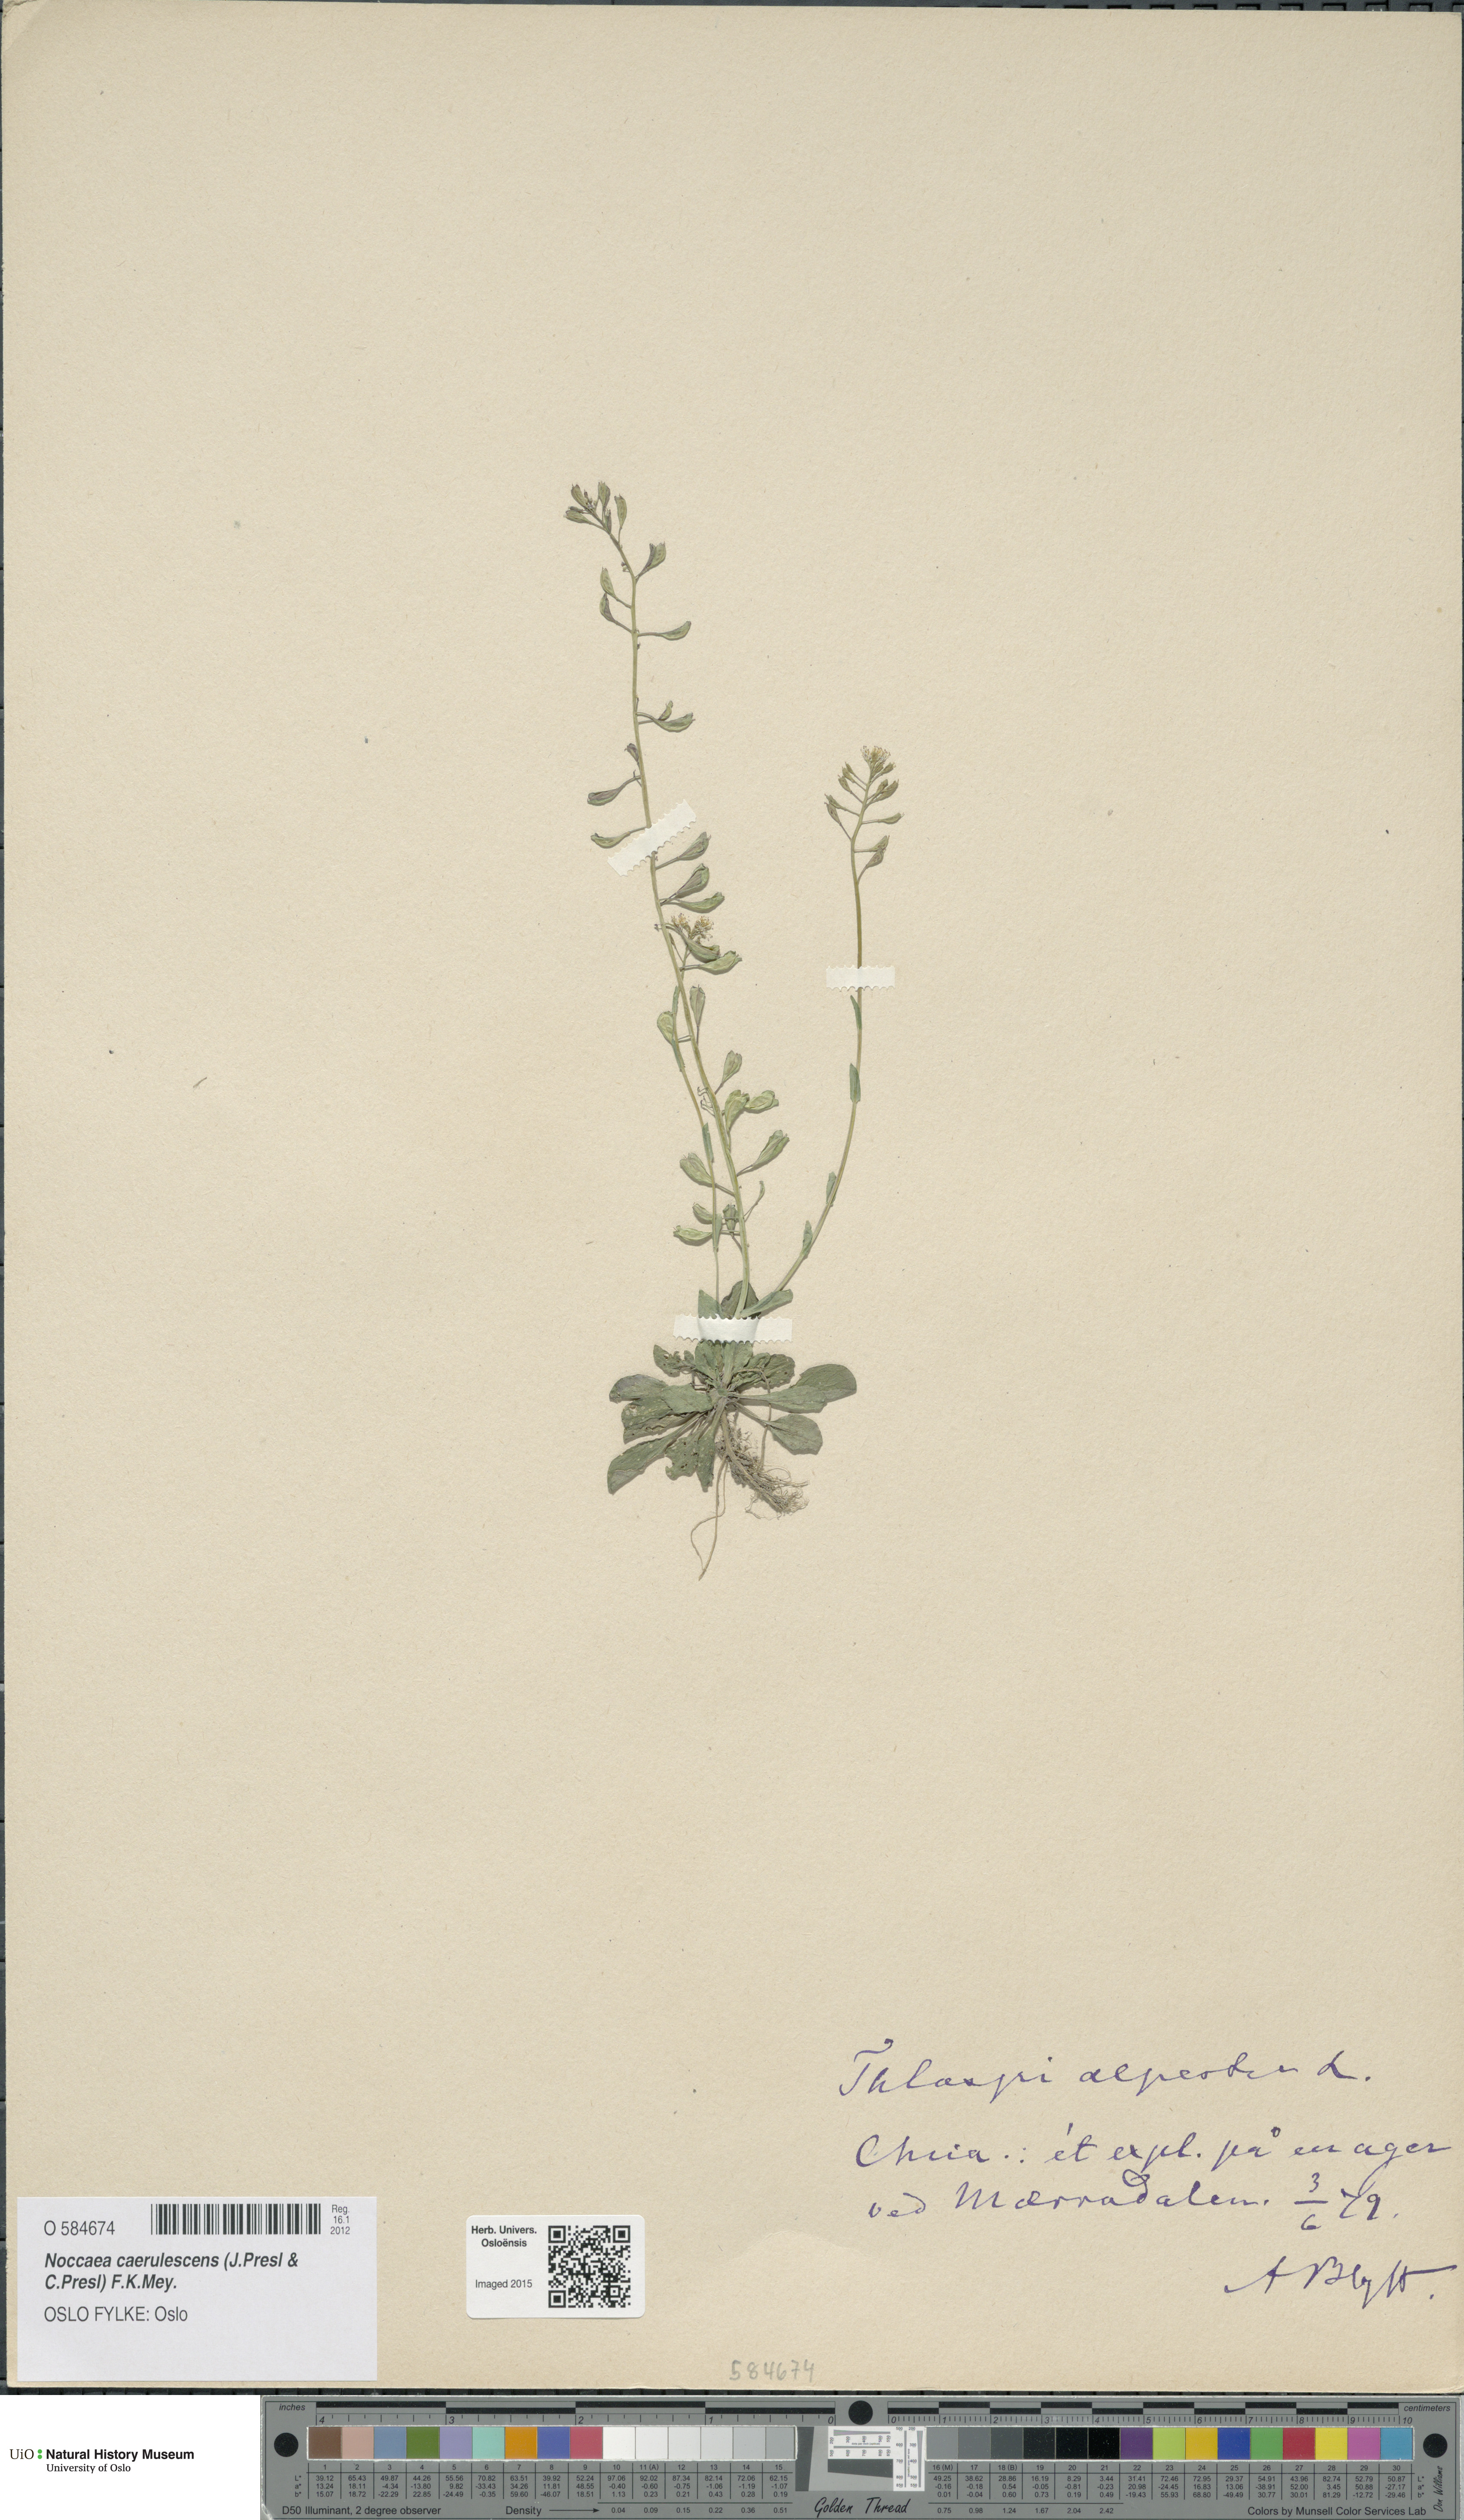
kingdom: Plantae
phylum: Tracheophyta
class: Magnoliopsida
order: Brassicales
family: Brassicaceae
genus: Noccaea
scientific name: Noccaea caerulescens
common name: Alpine pennycress
